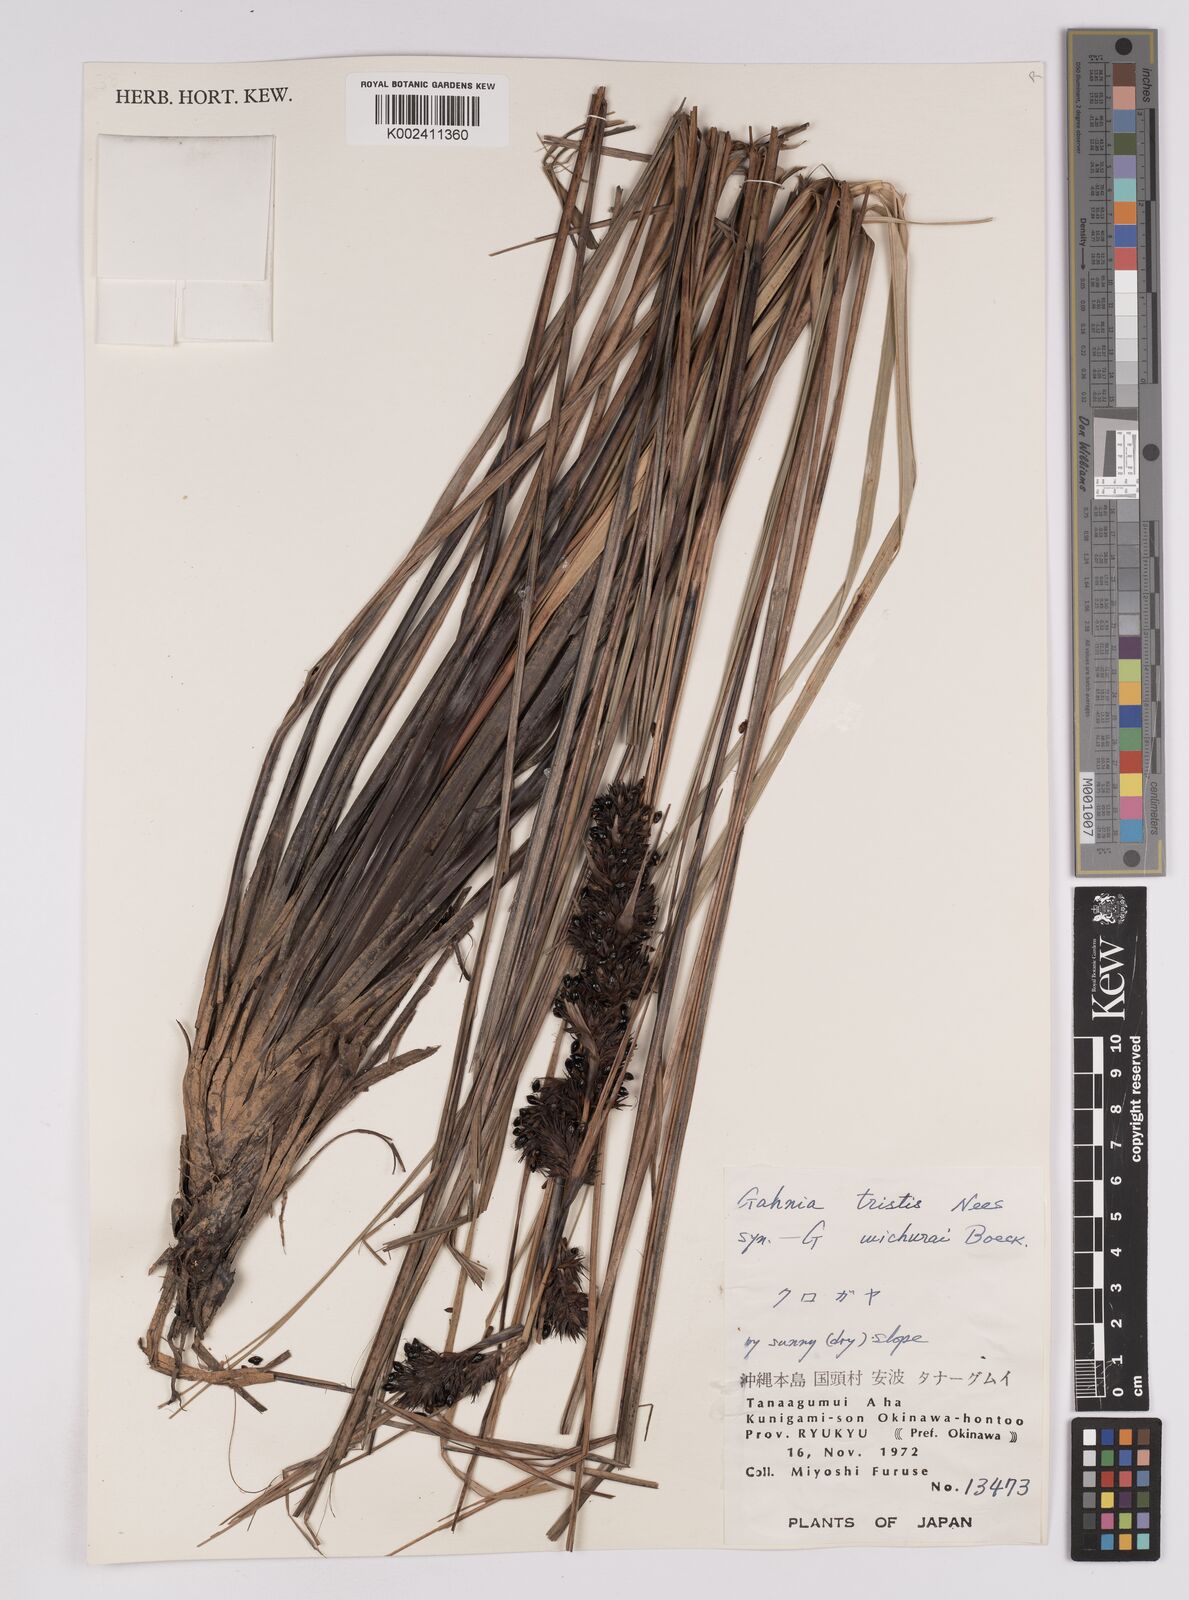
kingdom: Plantae
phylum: Tracheophyta
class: Liliopsida
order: Poales
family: Cyperaceae
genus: Gahnia
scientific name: Gahnia tristis
